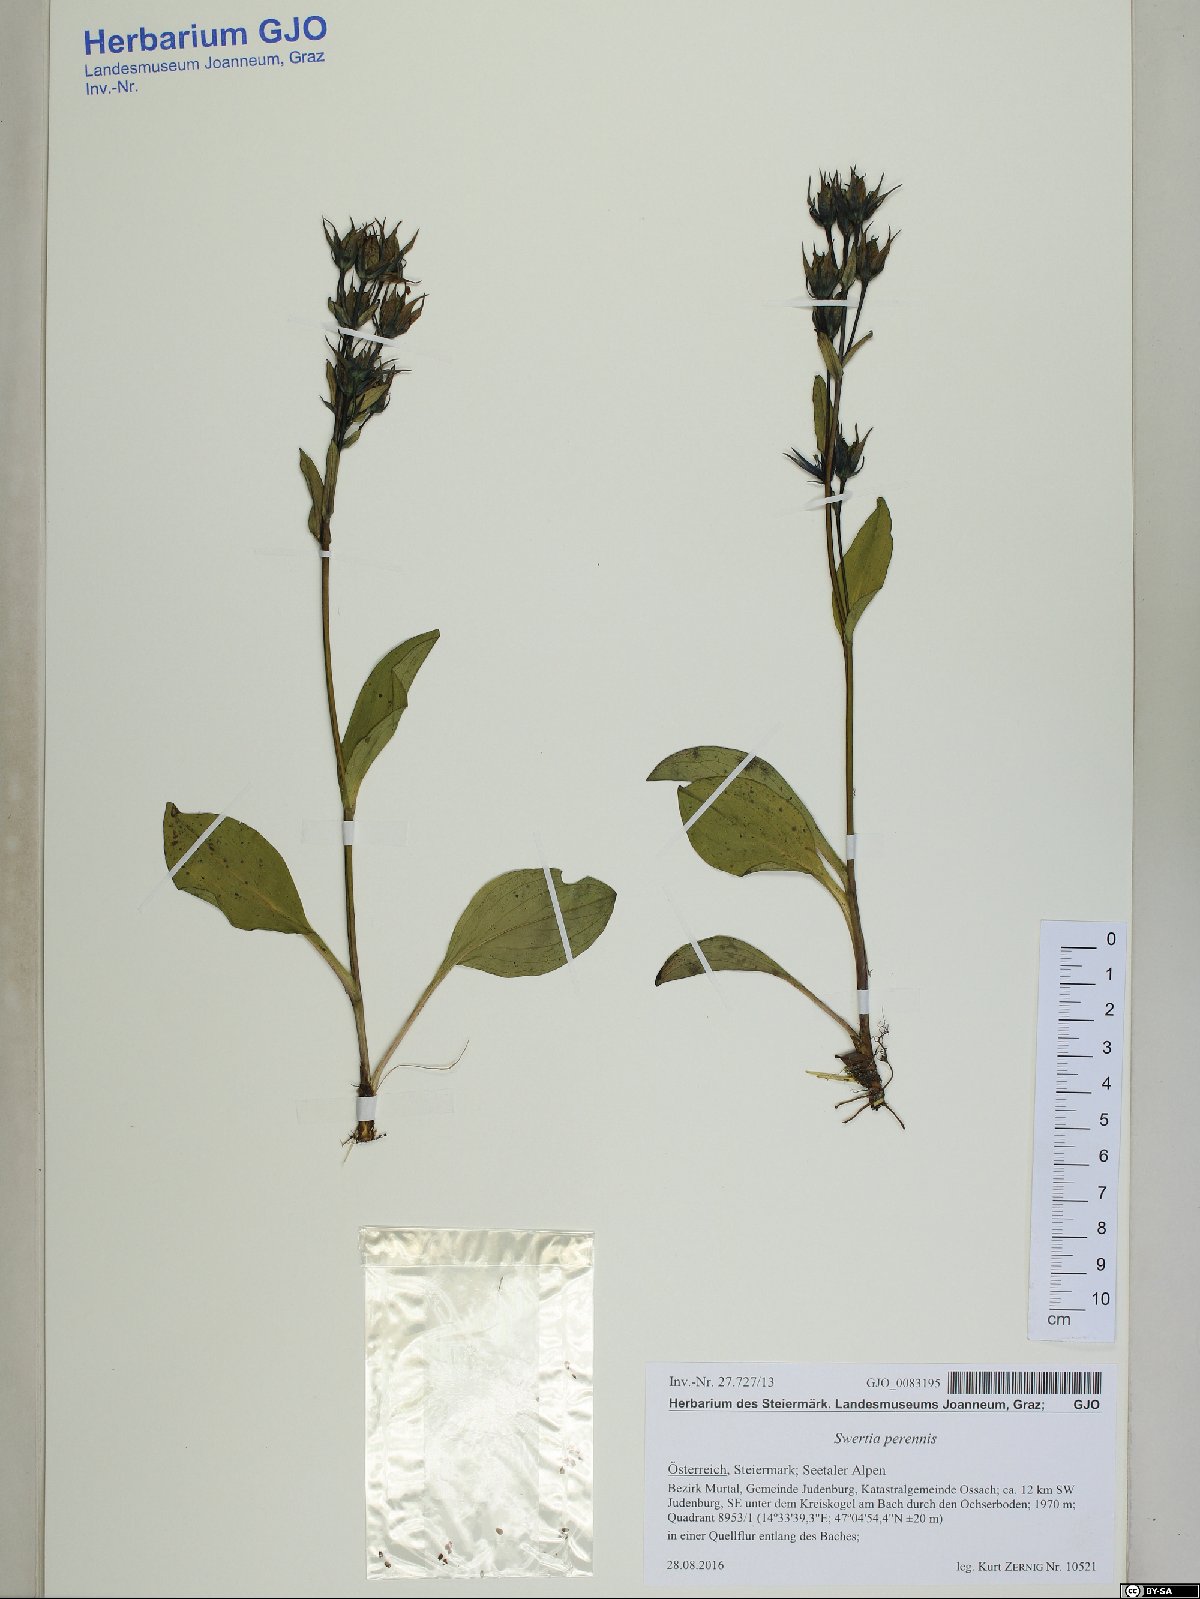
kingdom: Plantae
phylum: Tracheophyta
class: Magnoliopsida
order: Gentianales
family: Gentianaceae
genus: Swertia
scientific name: Swertia perennis
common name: Alpine bog swertia
